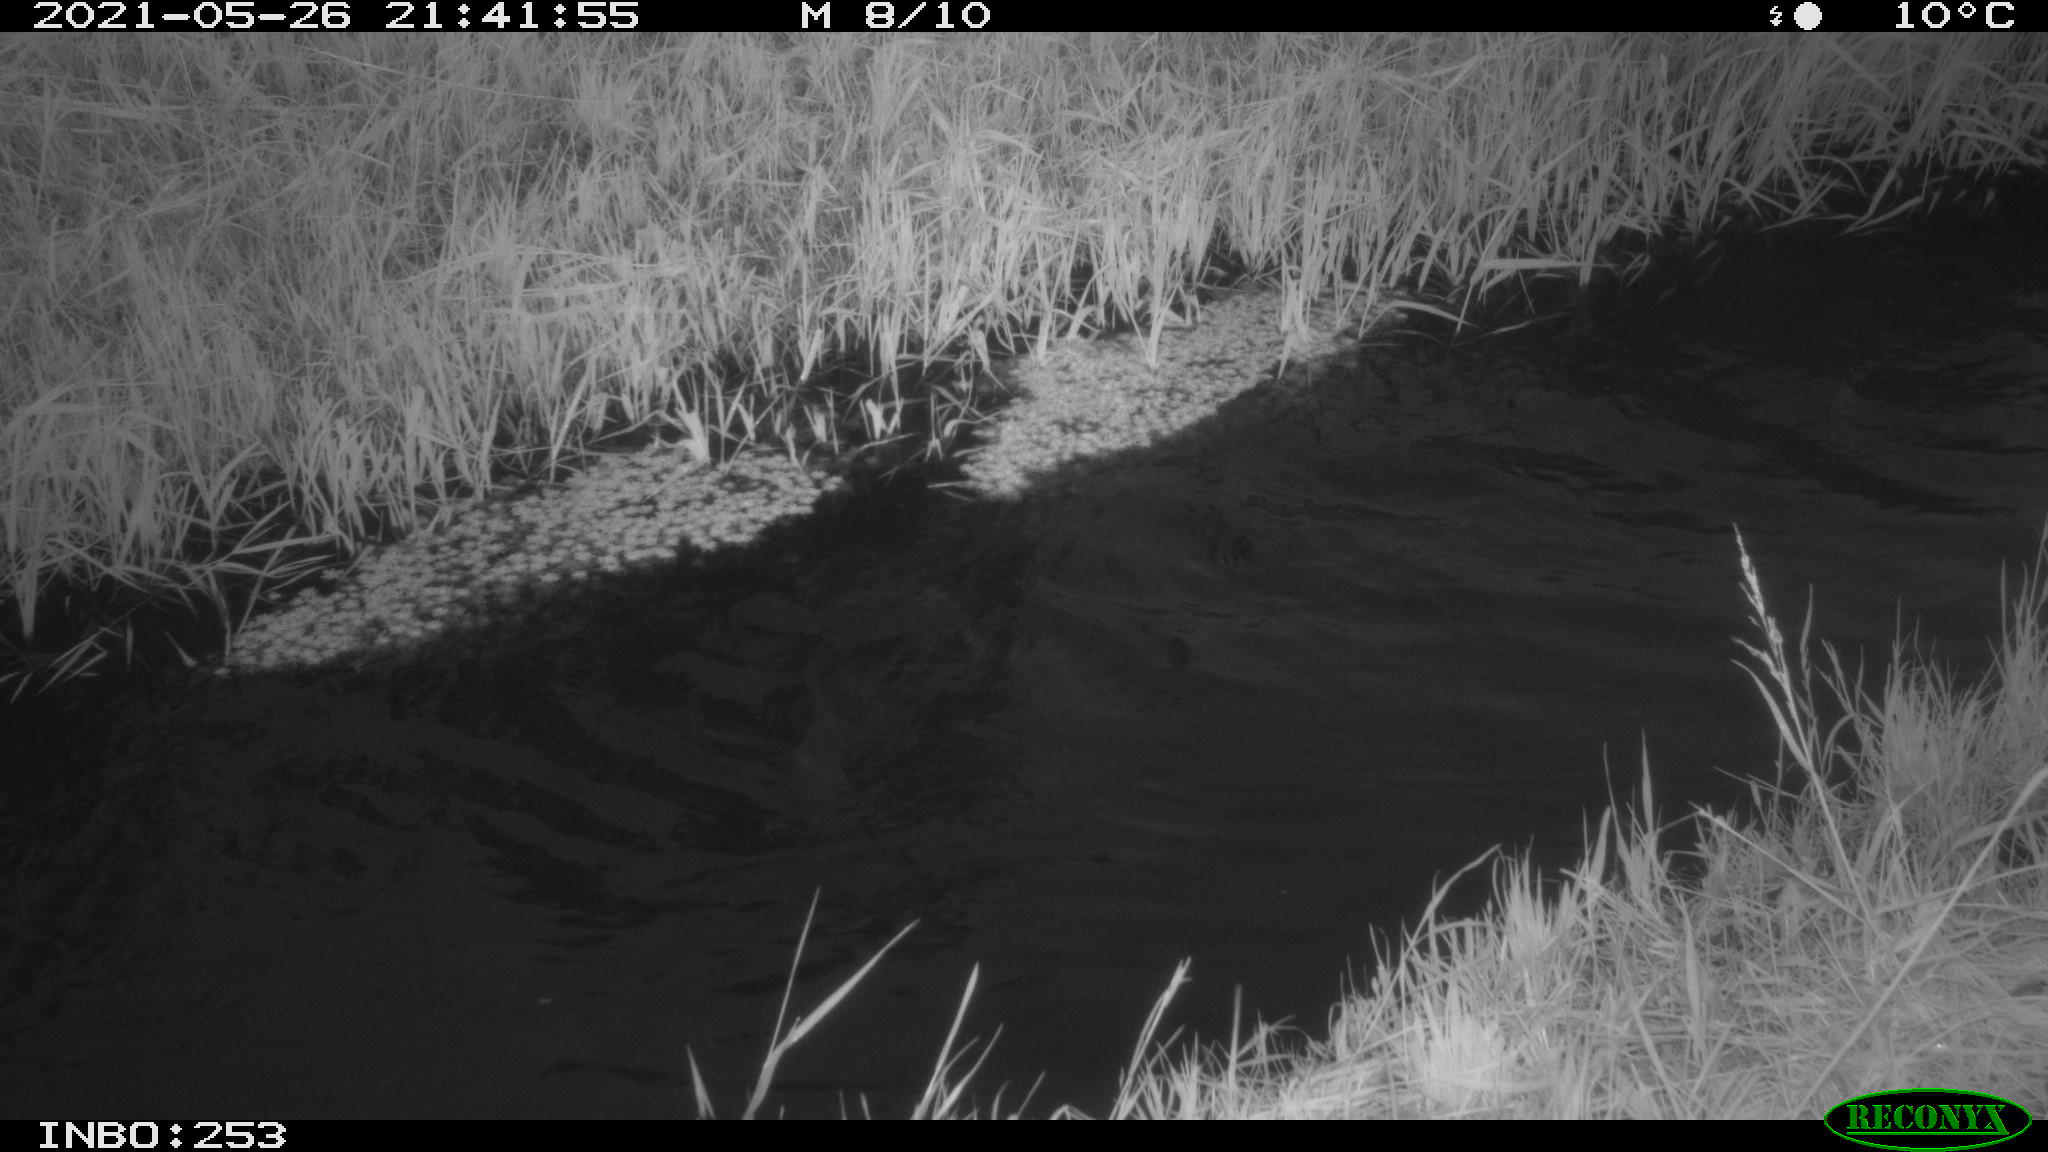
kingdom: Animalia
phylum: Chordata
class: Aves
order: Anseriformes
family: Anatidae
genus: Anas
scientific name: Anas
